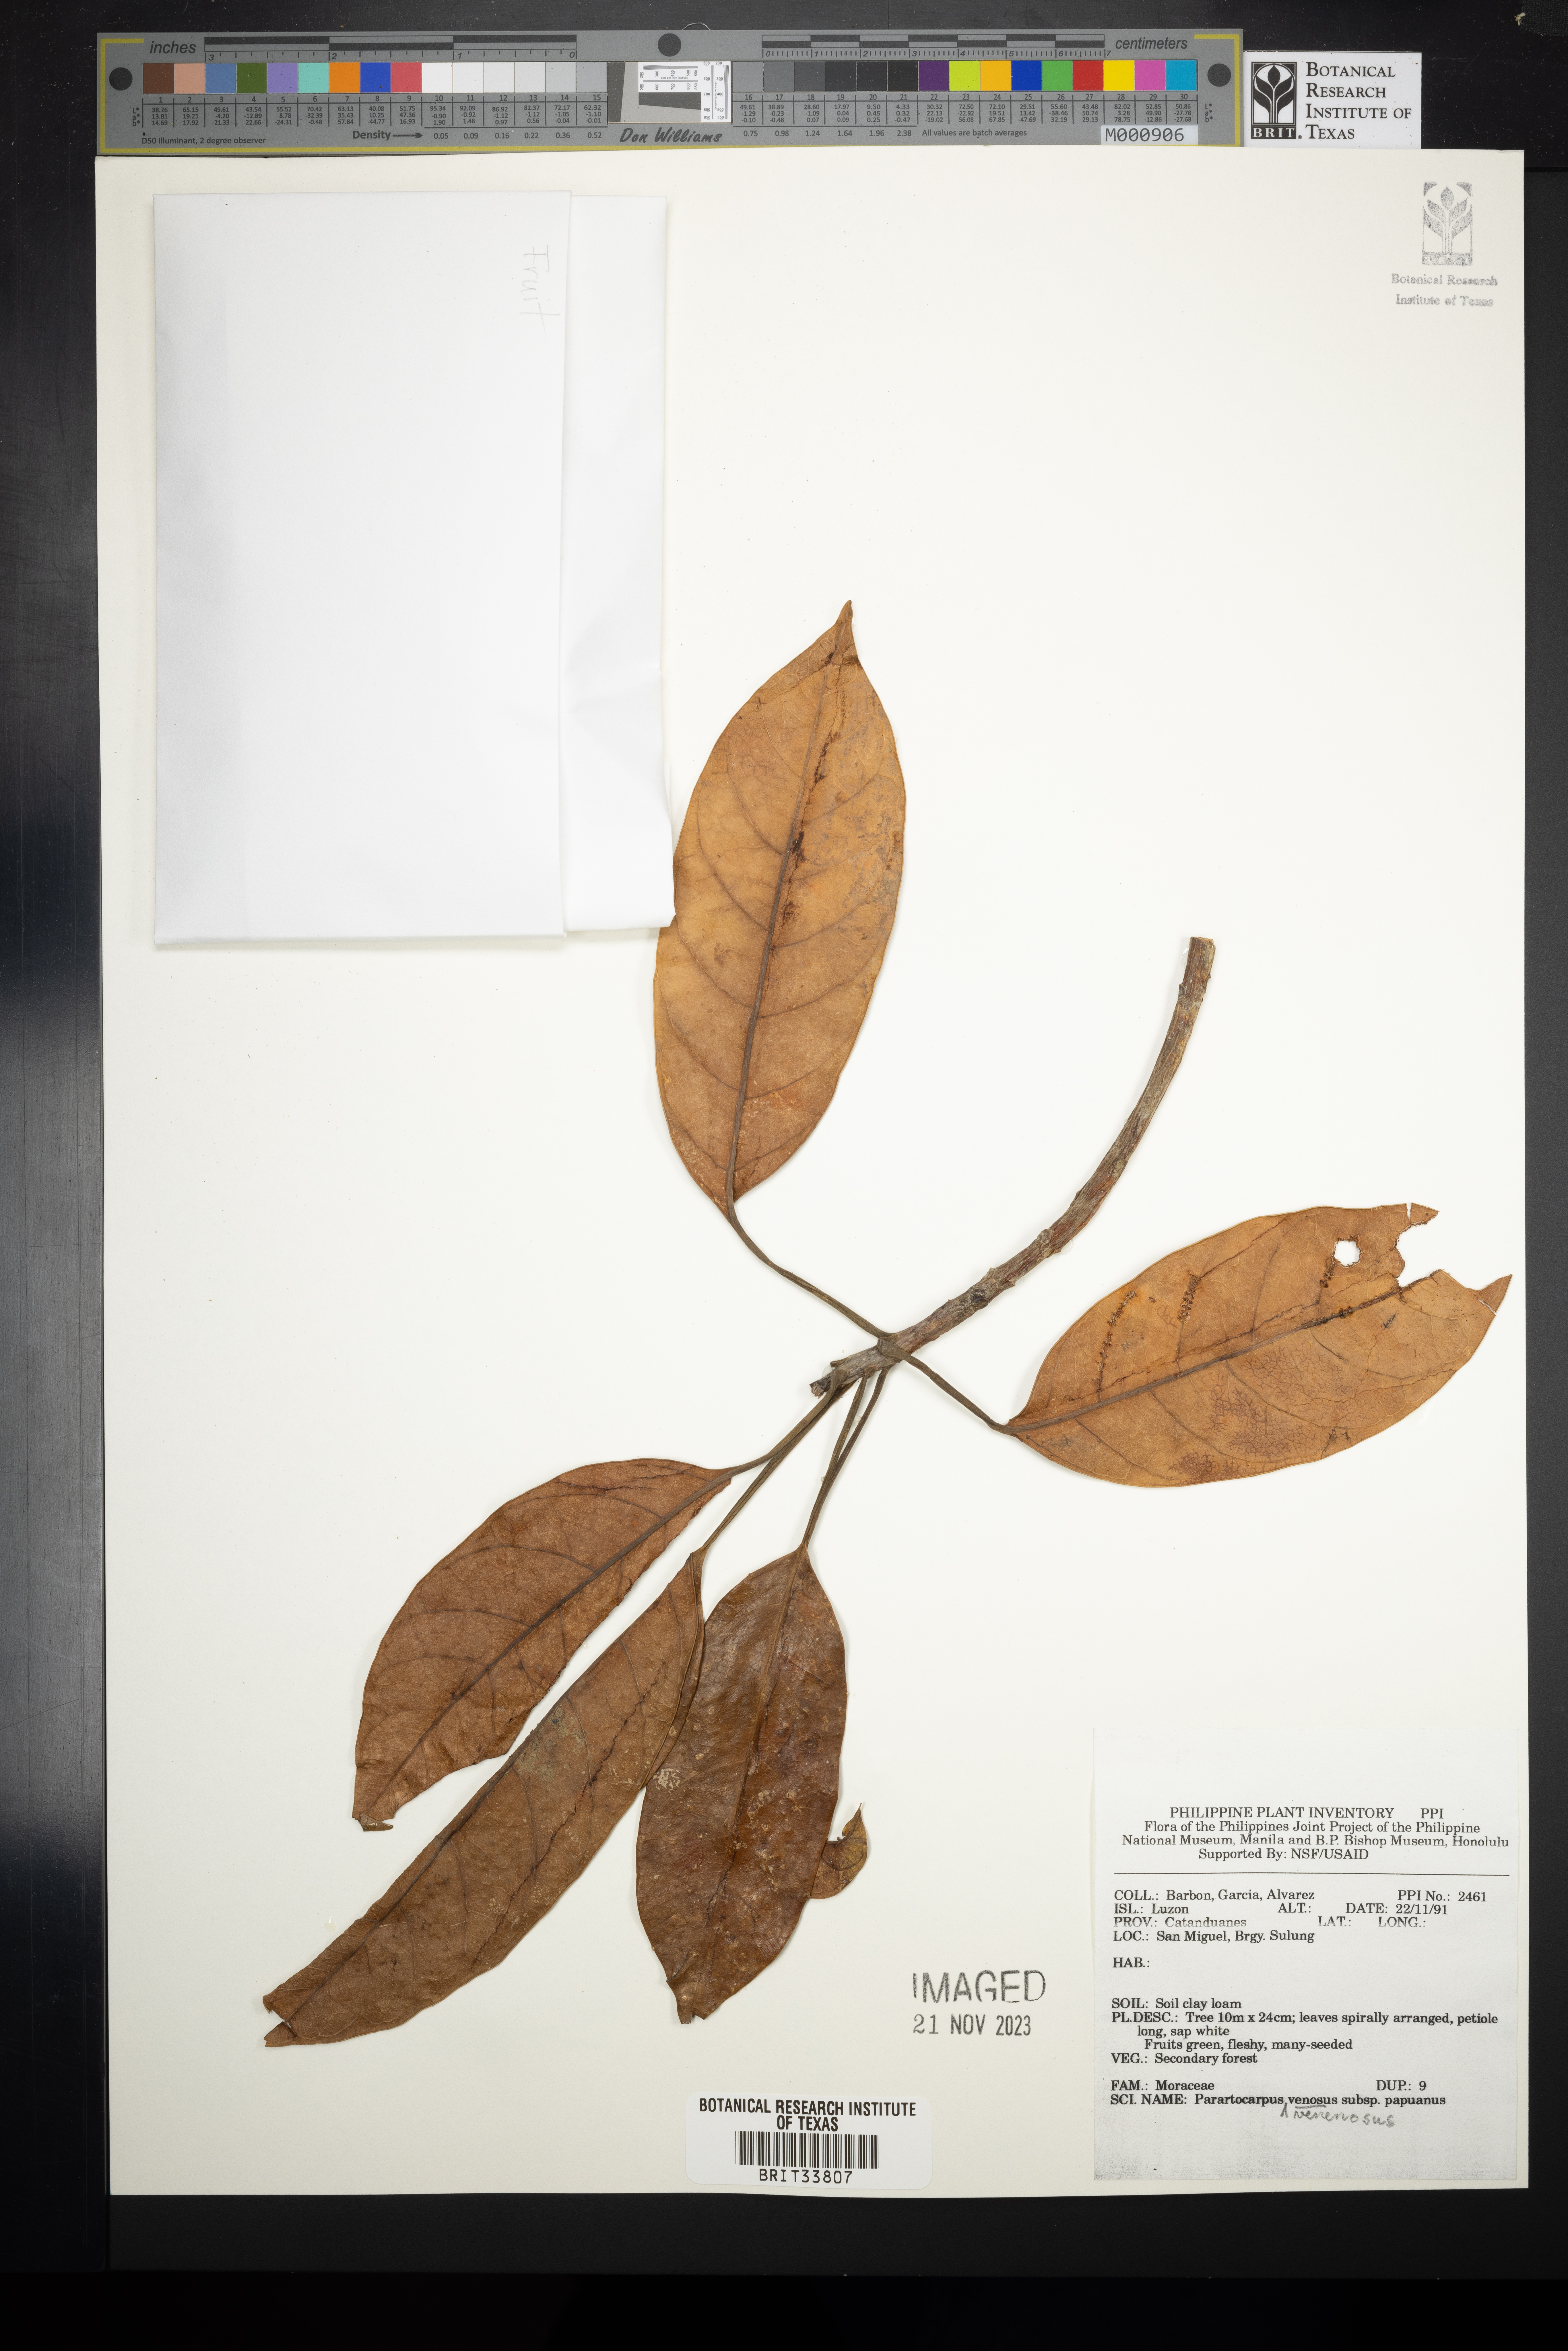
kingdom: Plantae
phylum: Tracheophyta
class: Magnoliopsida
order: Rosales
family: Moraceae
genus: Parartocarpus
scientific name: Parartocarpus venenosa
